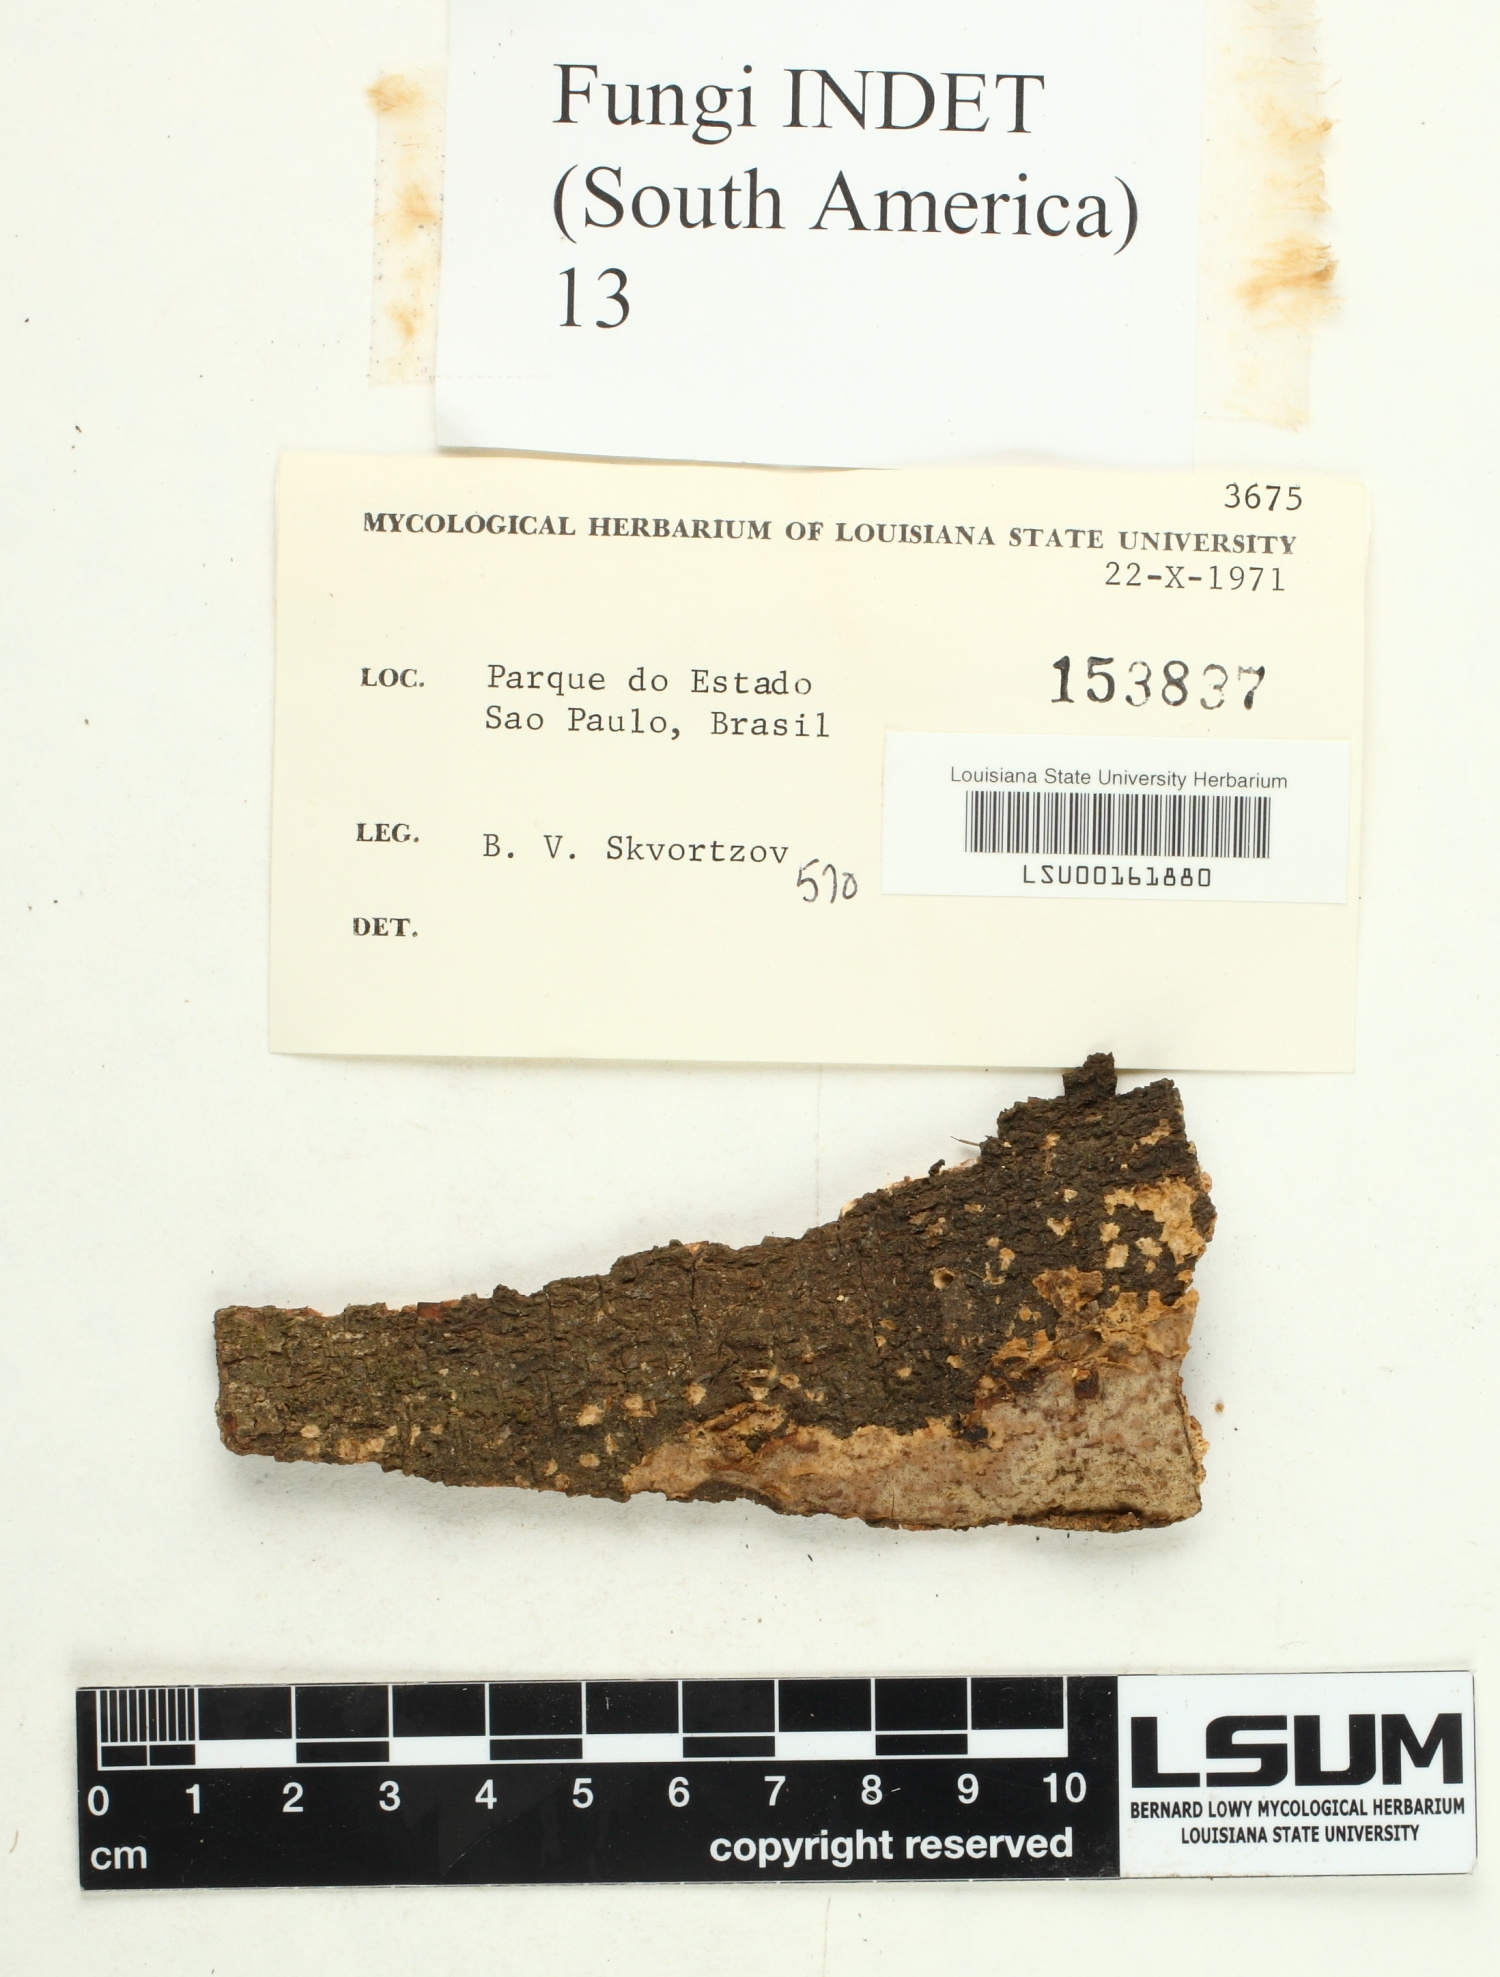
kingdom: Fungi
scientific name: Fungi
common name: Fungi
